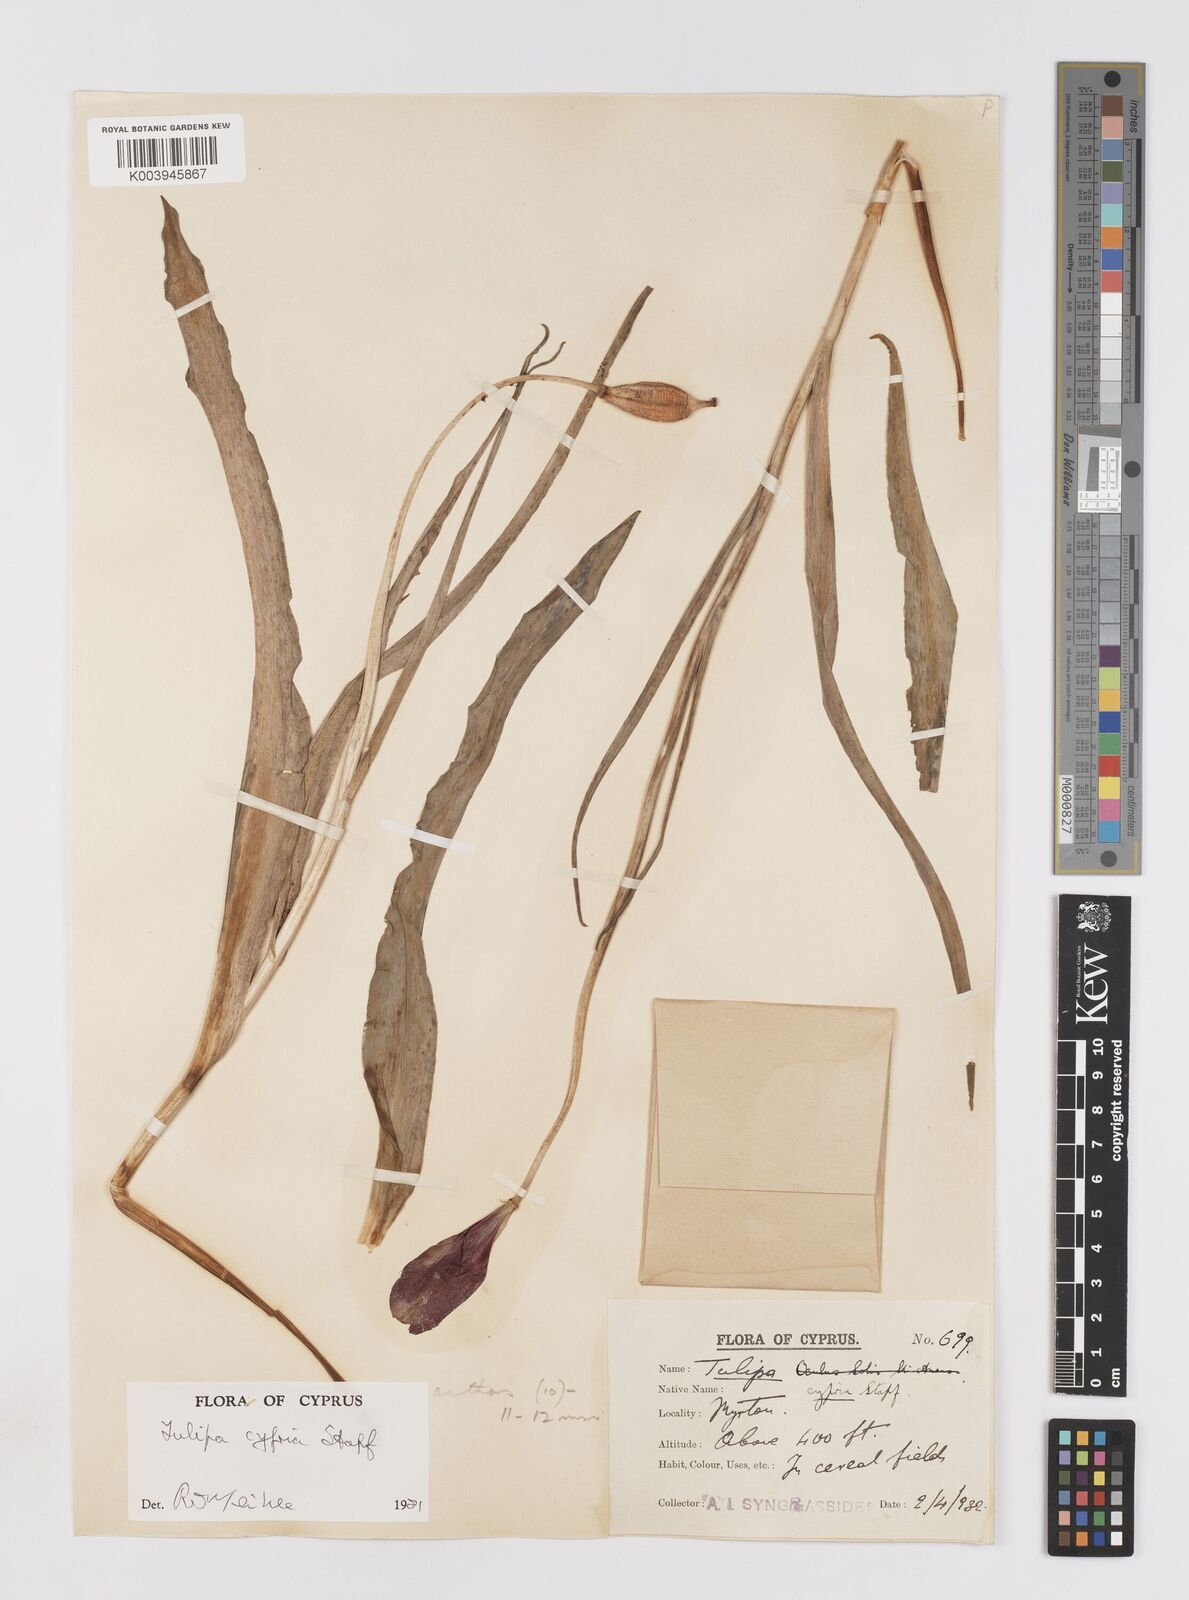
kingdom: Plantae
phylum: Tracheophyta
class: Liliopsida
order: Liliales
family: Liliaceae
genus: Tulipa
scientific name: Tulipa cypria
